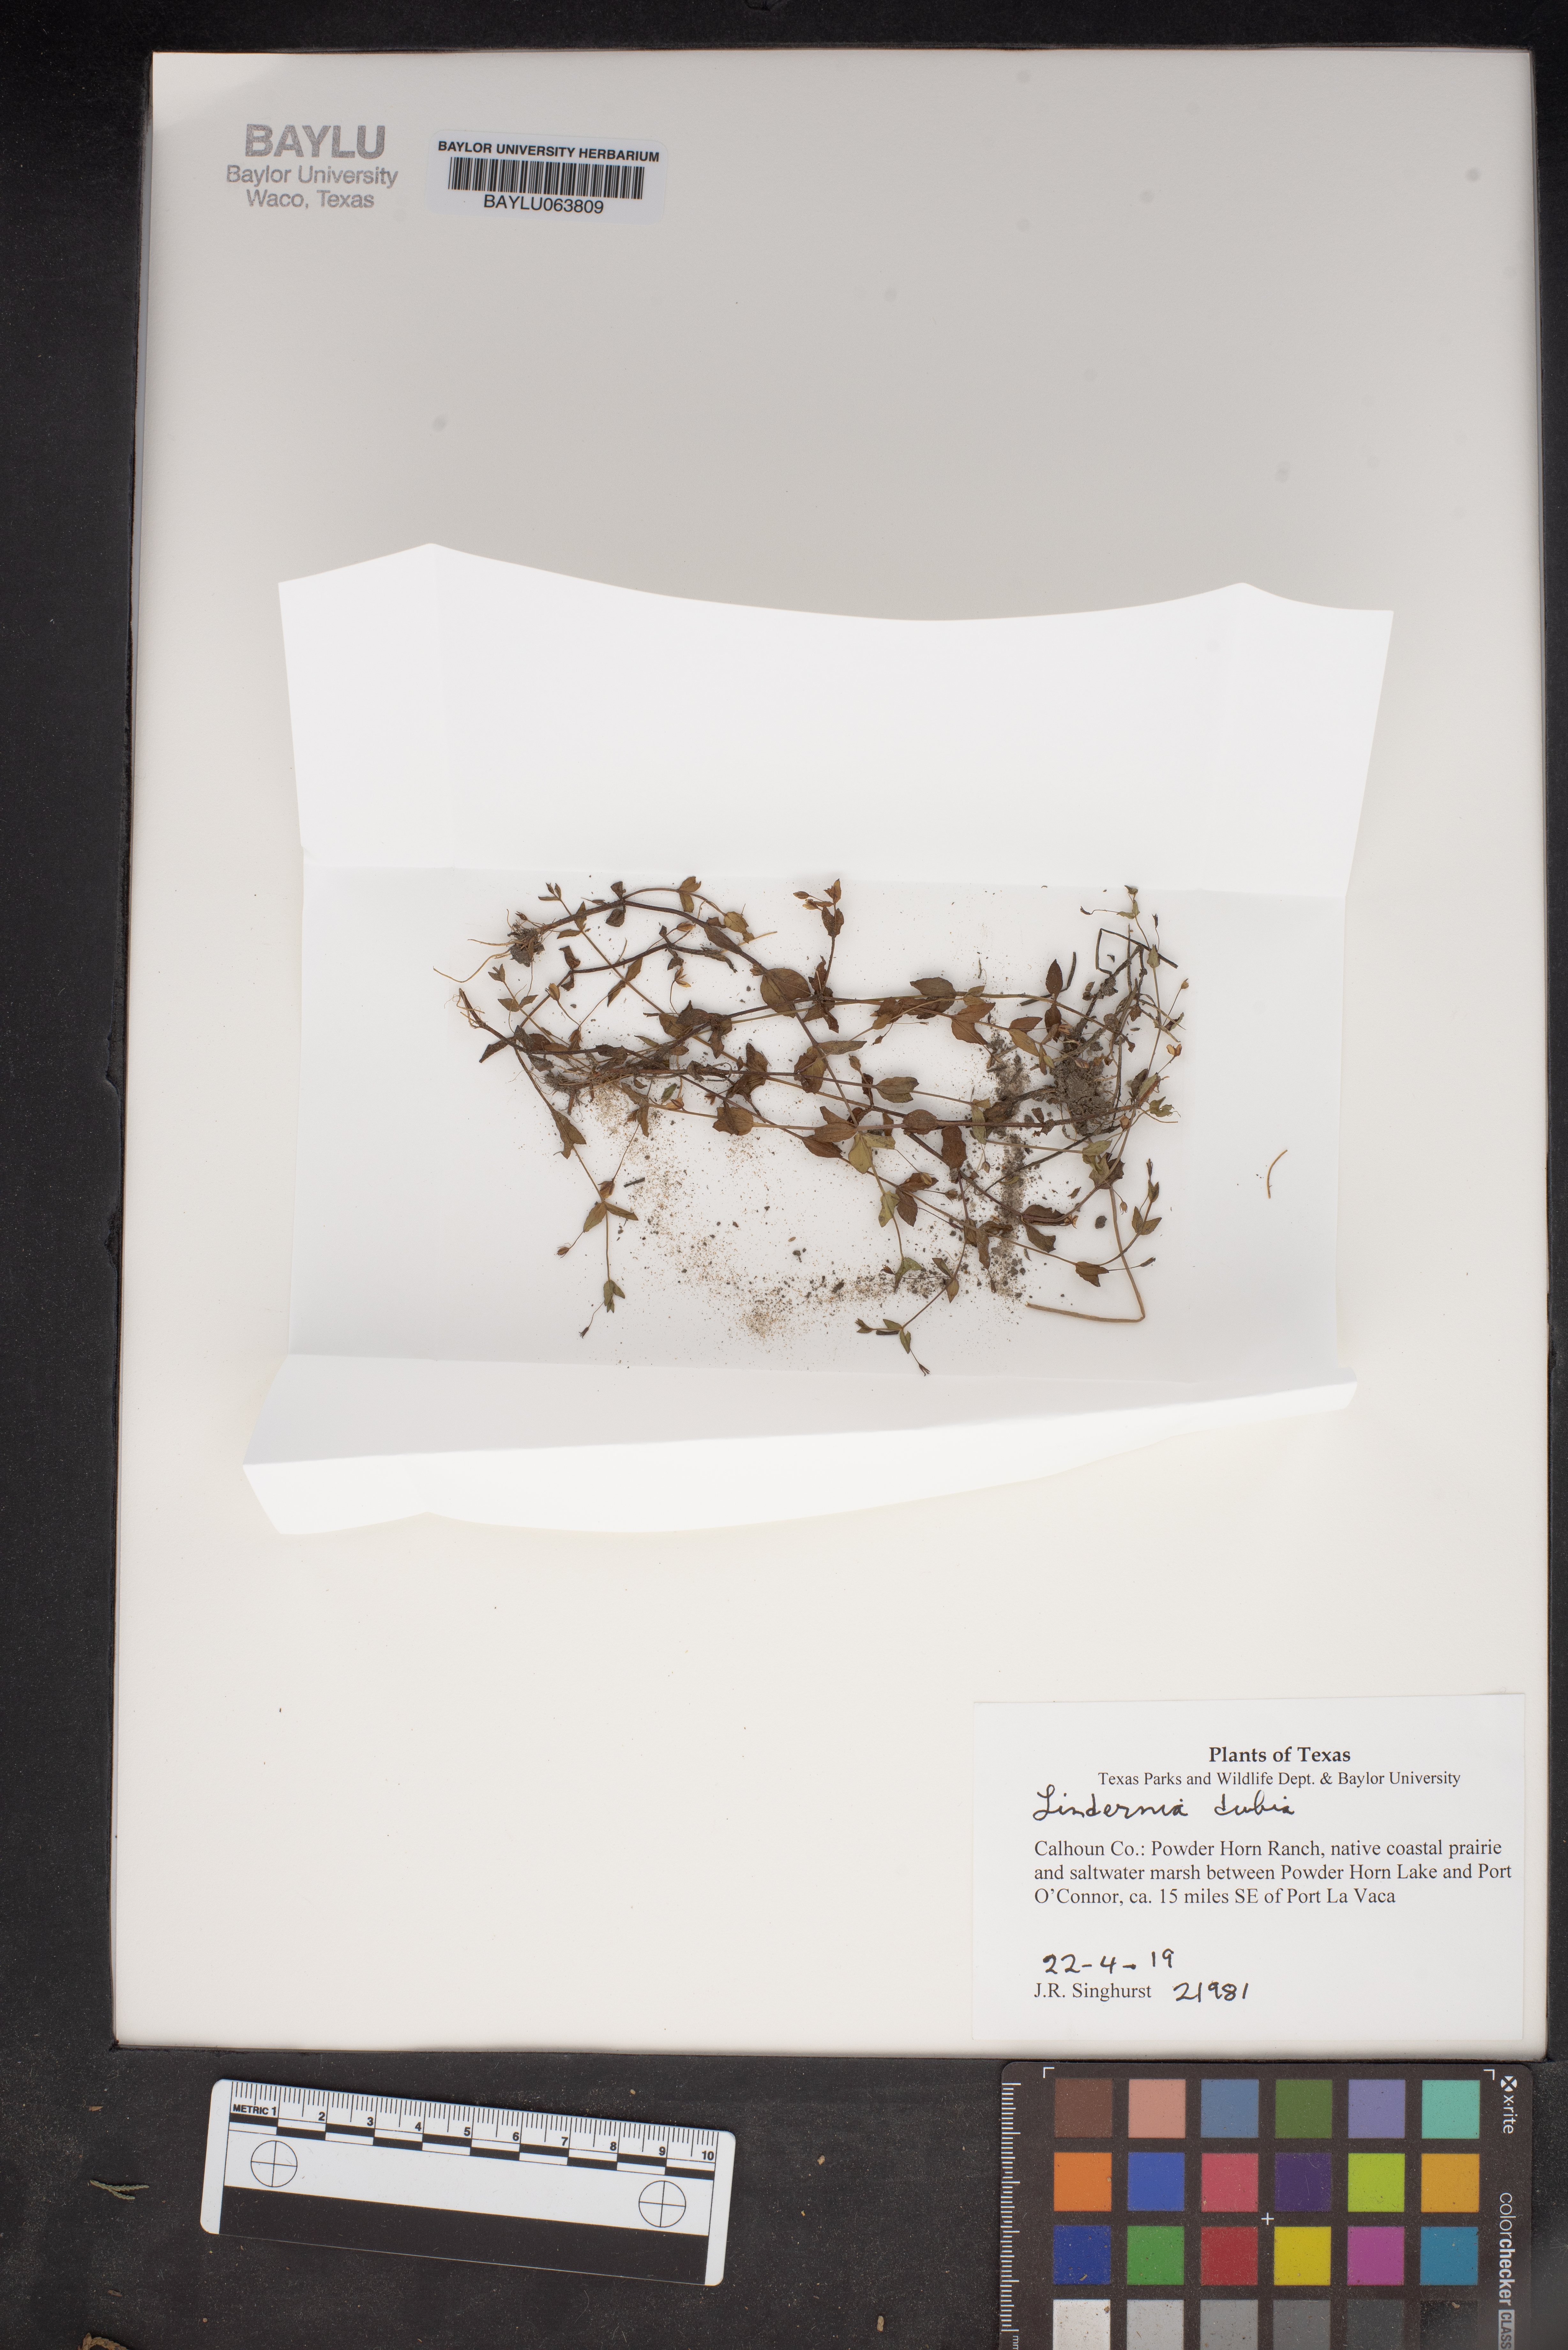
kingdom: Plantae
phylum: Tracheophyta
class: Magnoliopsida
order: Lamiales
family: Linderniaceae
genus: Lindernia
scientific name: Lindernia dubia
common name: Annual false pimpernel
